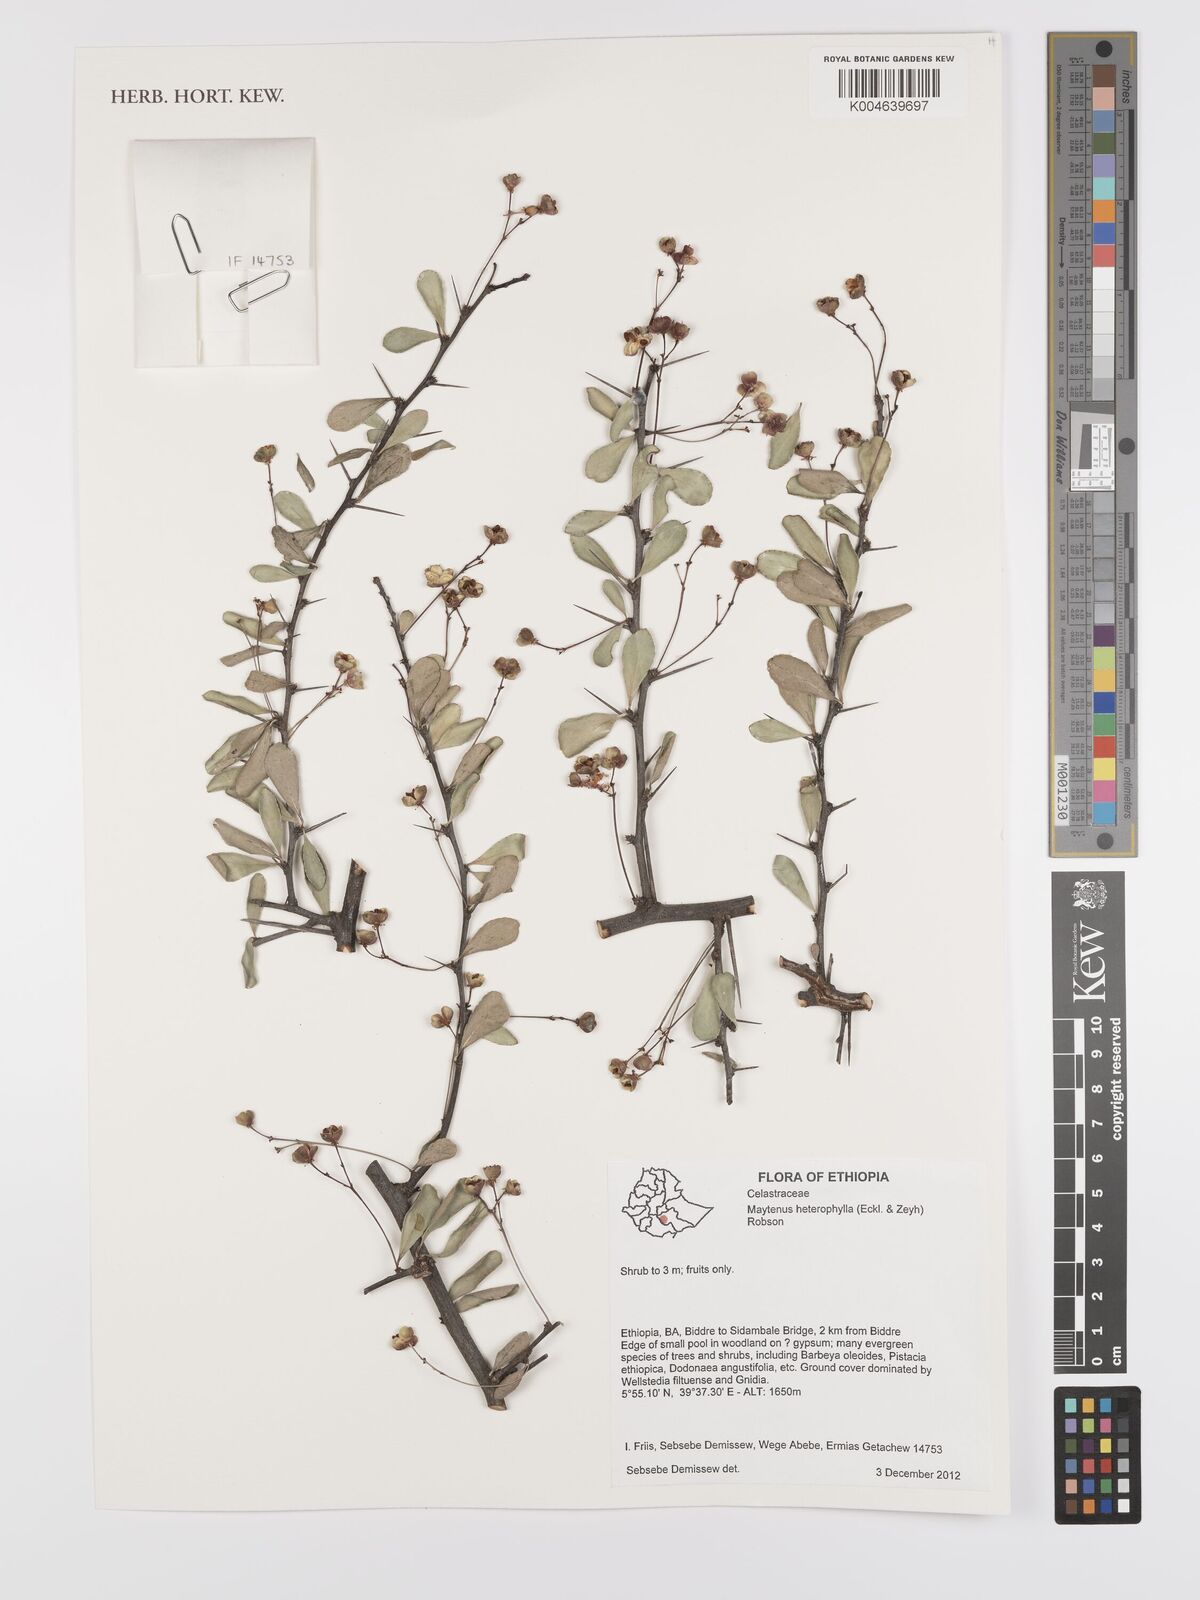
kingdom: Plantae
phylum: Tracheophyta
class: Magnoliopsida
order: Celastrales
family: Celastraceae
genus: Gymnosporia
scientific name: Gymnosporia heterophylla
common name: Angle-stem spikethorn
